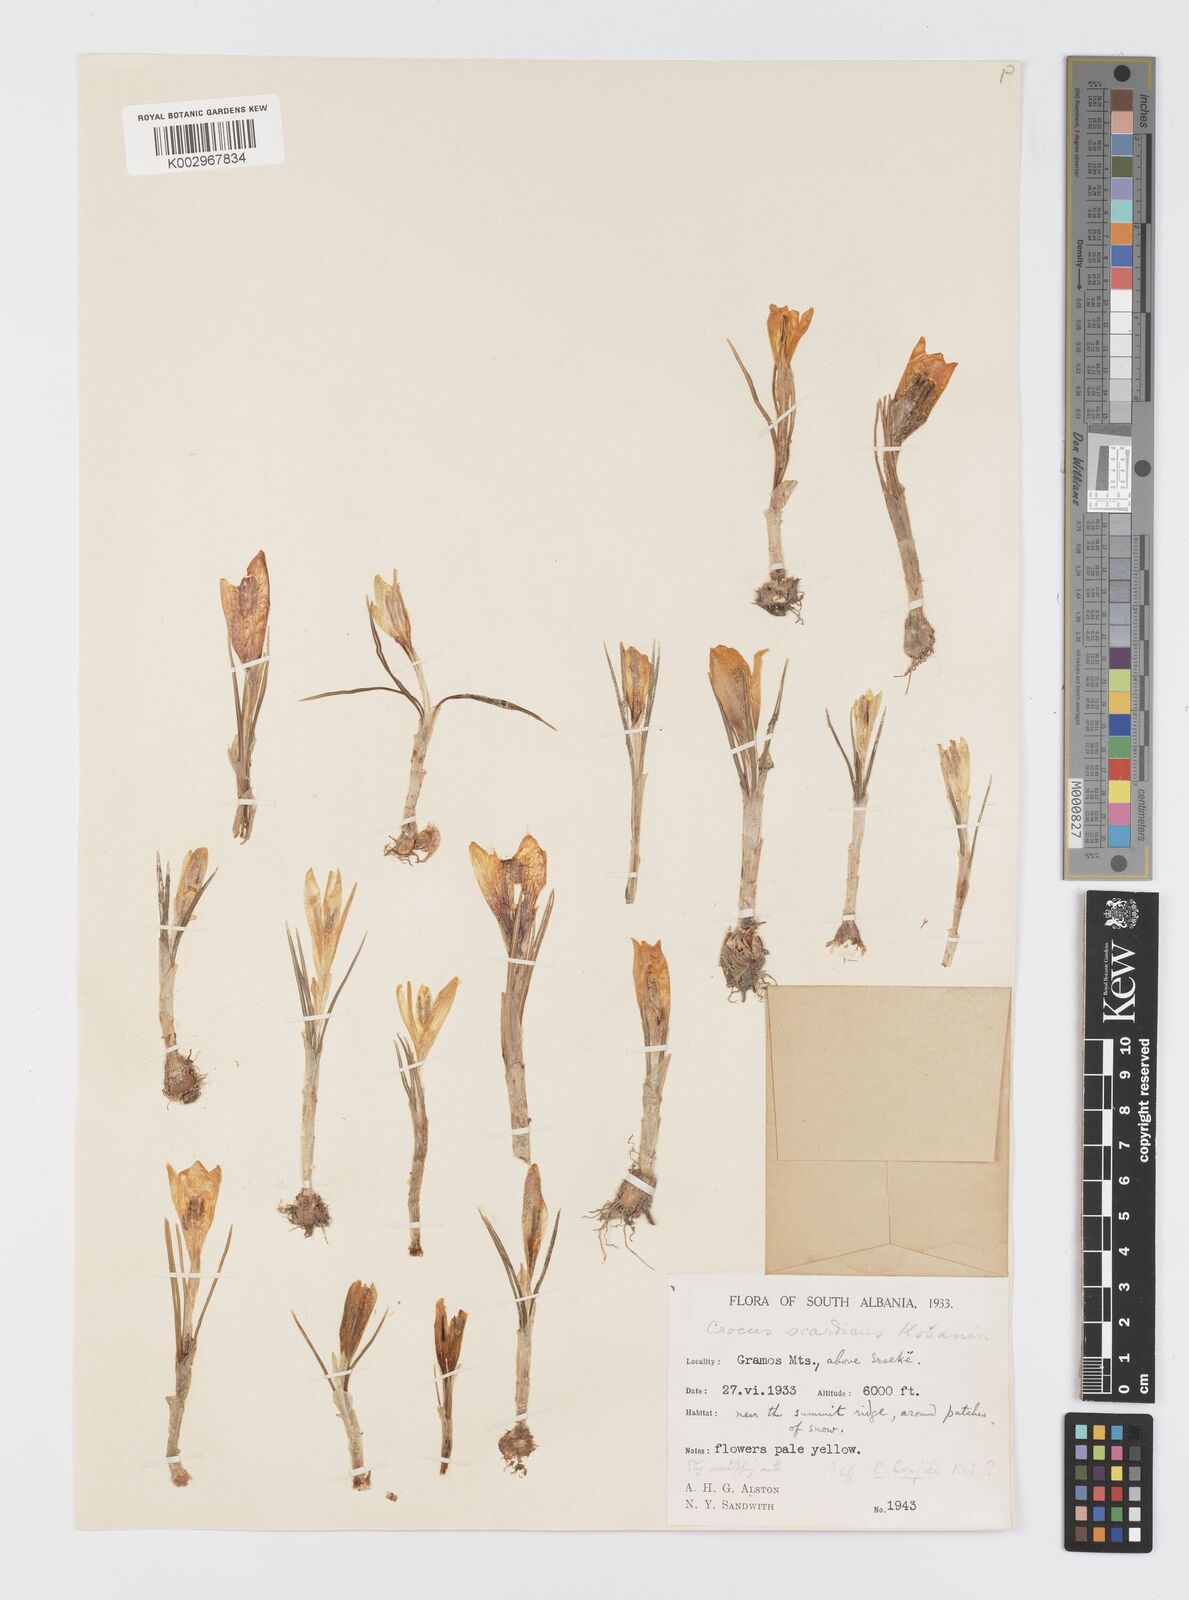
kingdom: Plantae
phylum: Tracheophyta
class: Liliopsida
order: Asparagales
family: Iridaceae
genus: Crocus
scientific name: Crocus cvijicii
